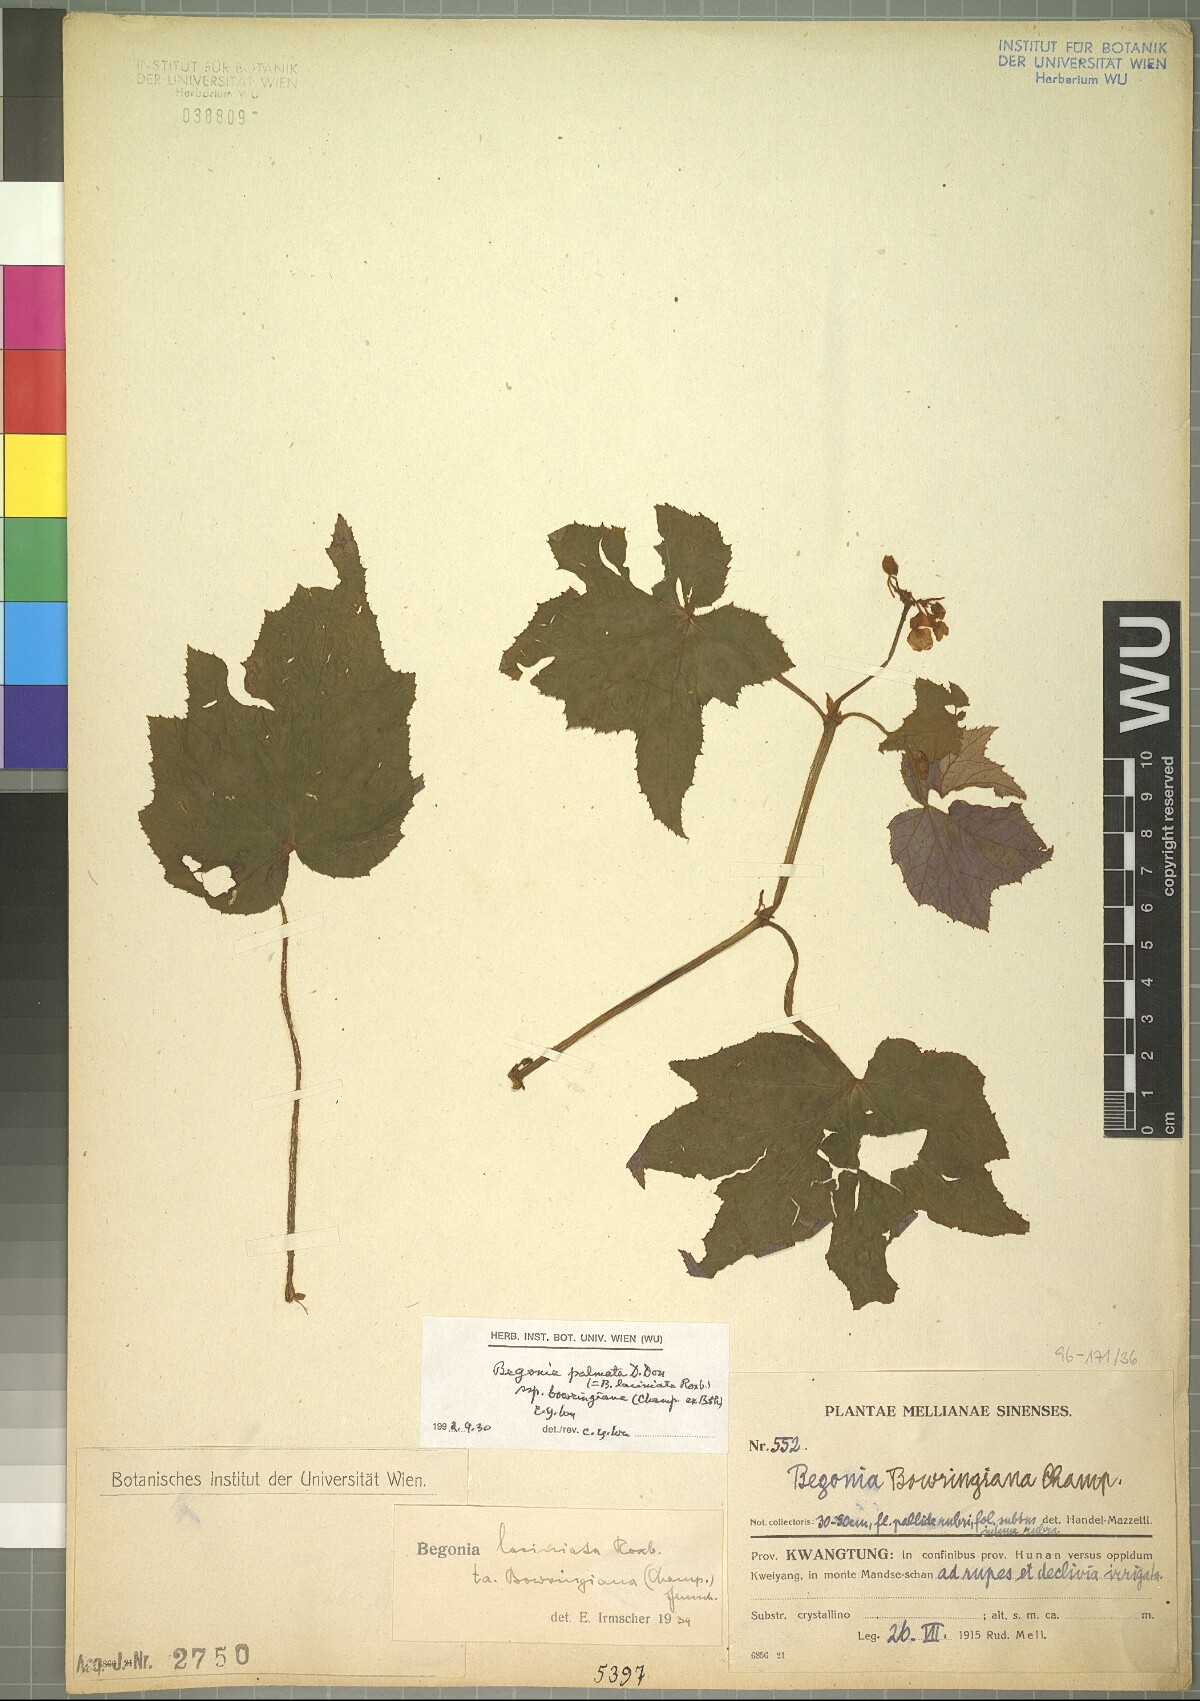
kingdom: Plantae
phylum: Tracheophyta
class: Magnoliopsida
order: Cucurbitales
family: Begoniaceae
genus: Begonia
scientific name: Begonia palmata
